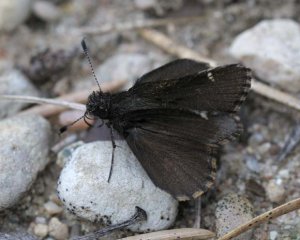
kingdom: Animalia
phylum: Arthropoda
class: Insecta
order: Lepidoptera
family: Hesperiidae
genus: Mastor
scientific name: Mastor vialis
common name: Common Roadside-Skipper
